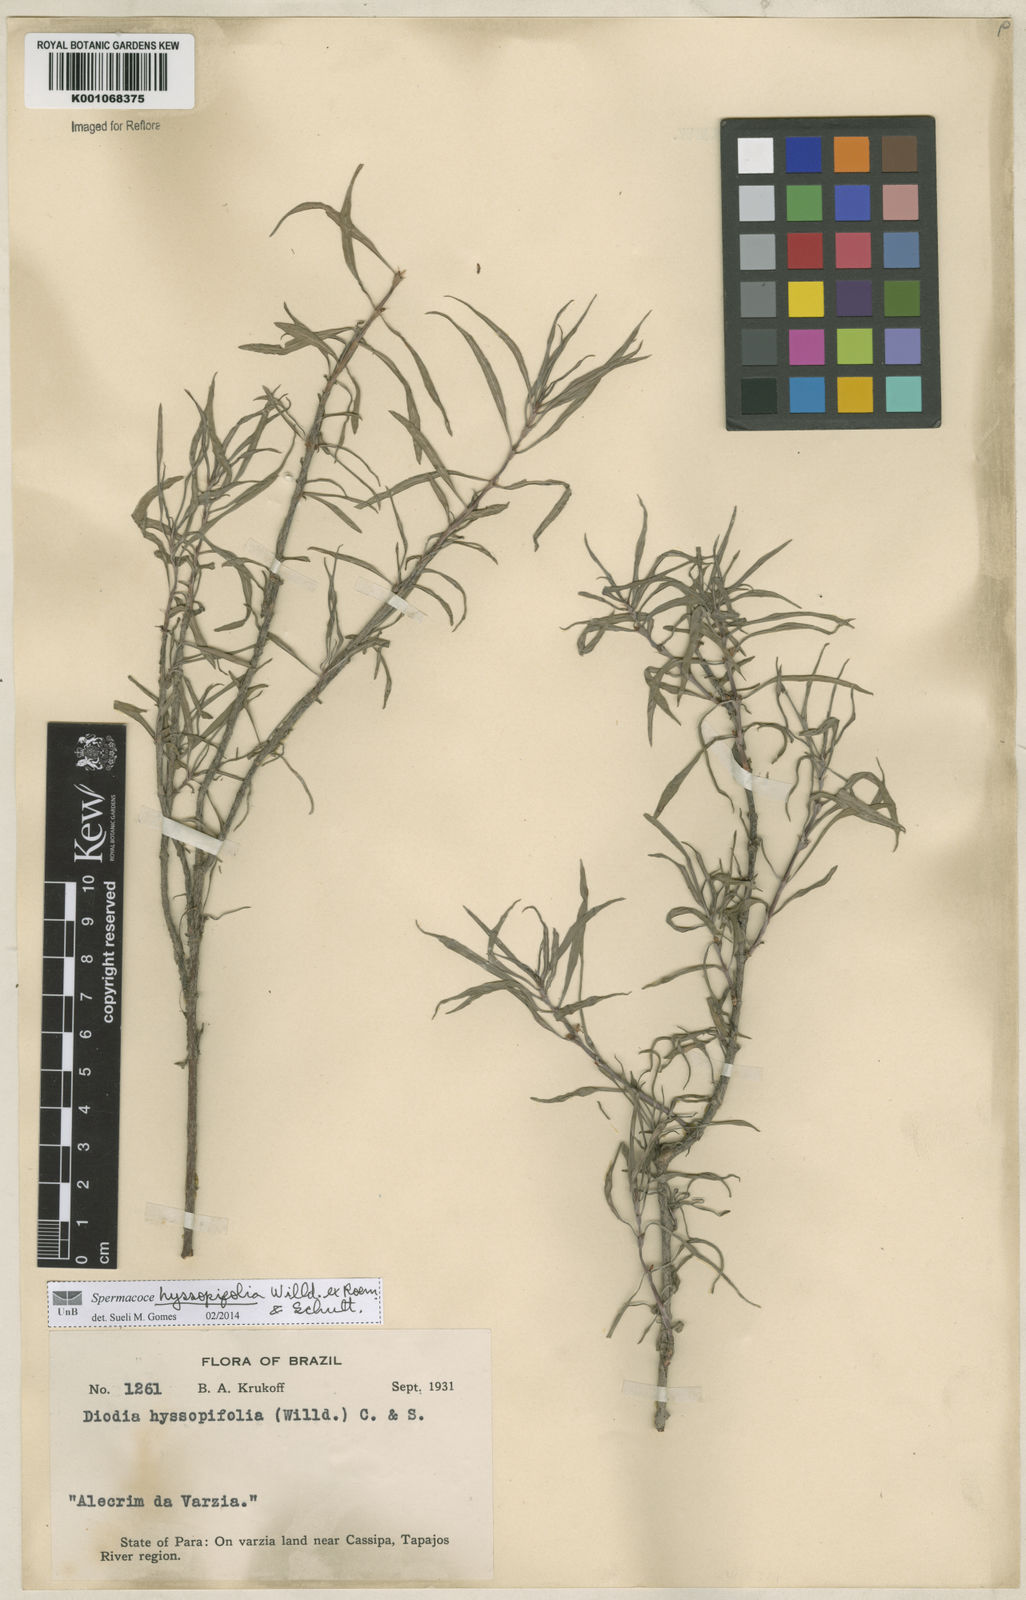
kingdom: Plantae
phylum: Tracheophyta
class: Magnoliopsida
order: Gentianales
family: Rubiaceae
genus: Spermacoce
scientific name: Spermacoce
